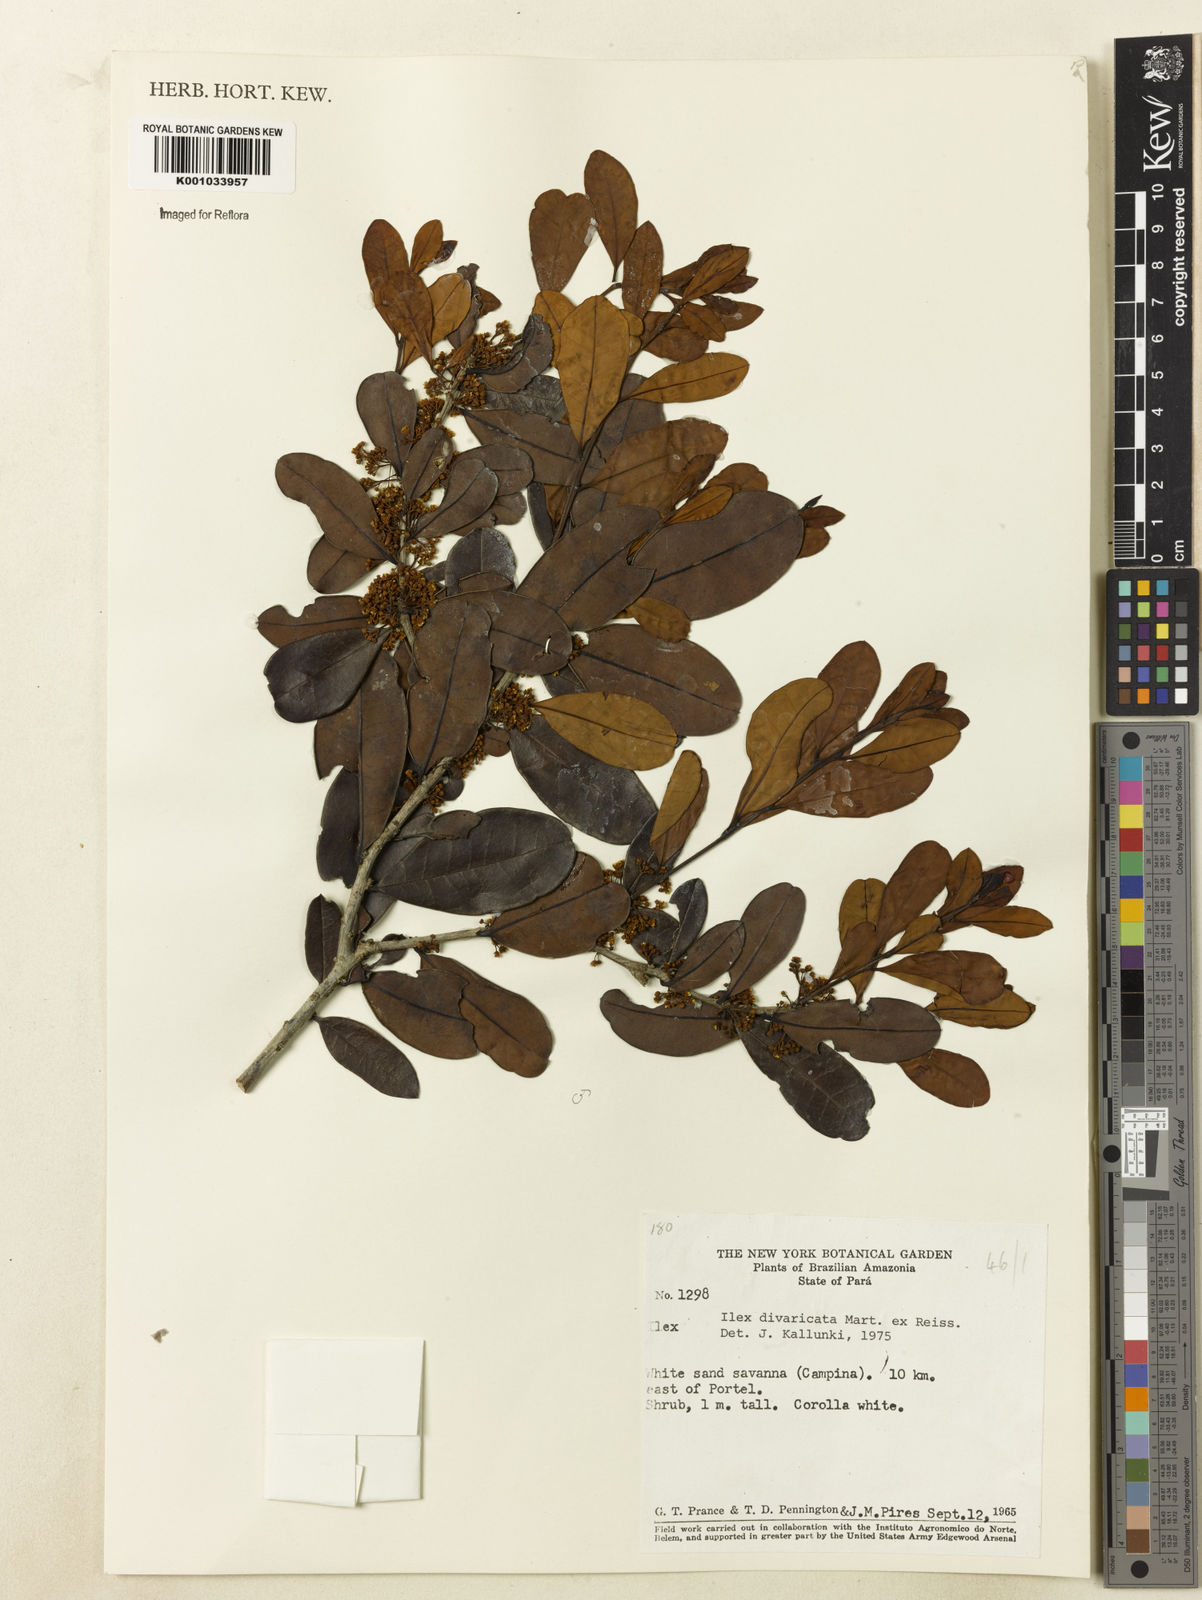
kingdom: Plantae
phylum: Tracheophyta
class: Magnoliopsida
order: Aquifoliales
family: Aquifoliaceae
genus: Ilex
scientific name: Ilex divaricata
